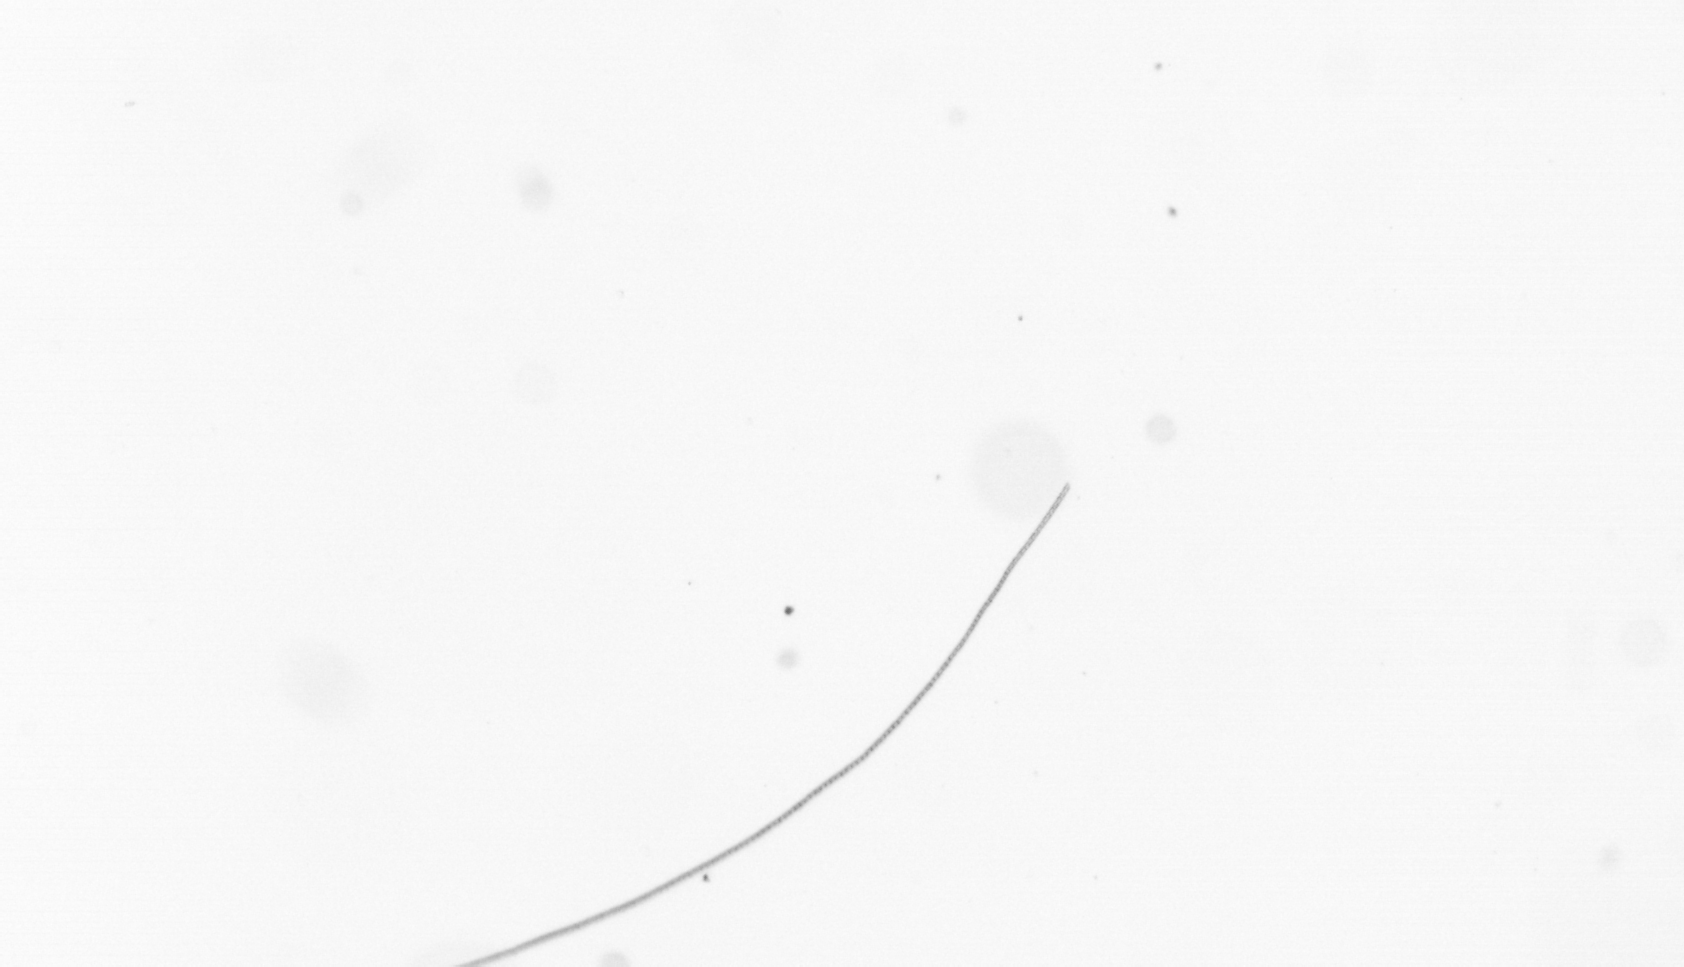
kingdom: Chromista
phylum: Ochrophyta
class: Bacillariophyceae
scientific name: Bacillariophyceae
